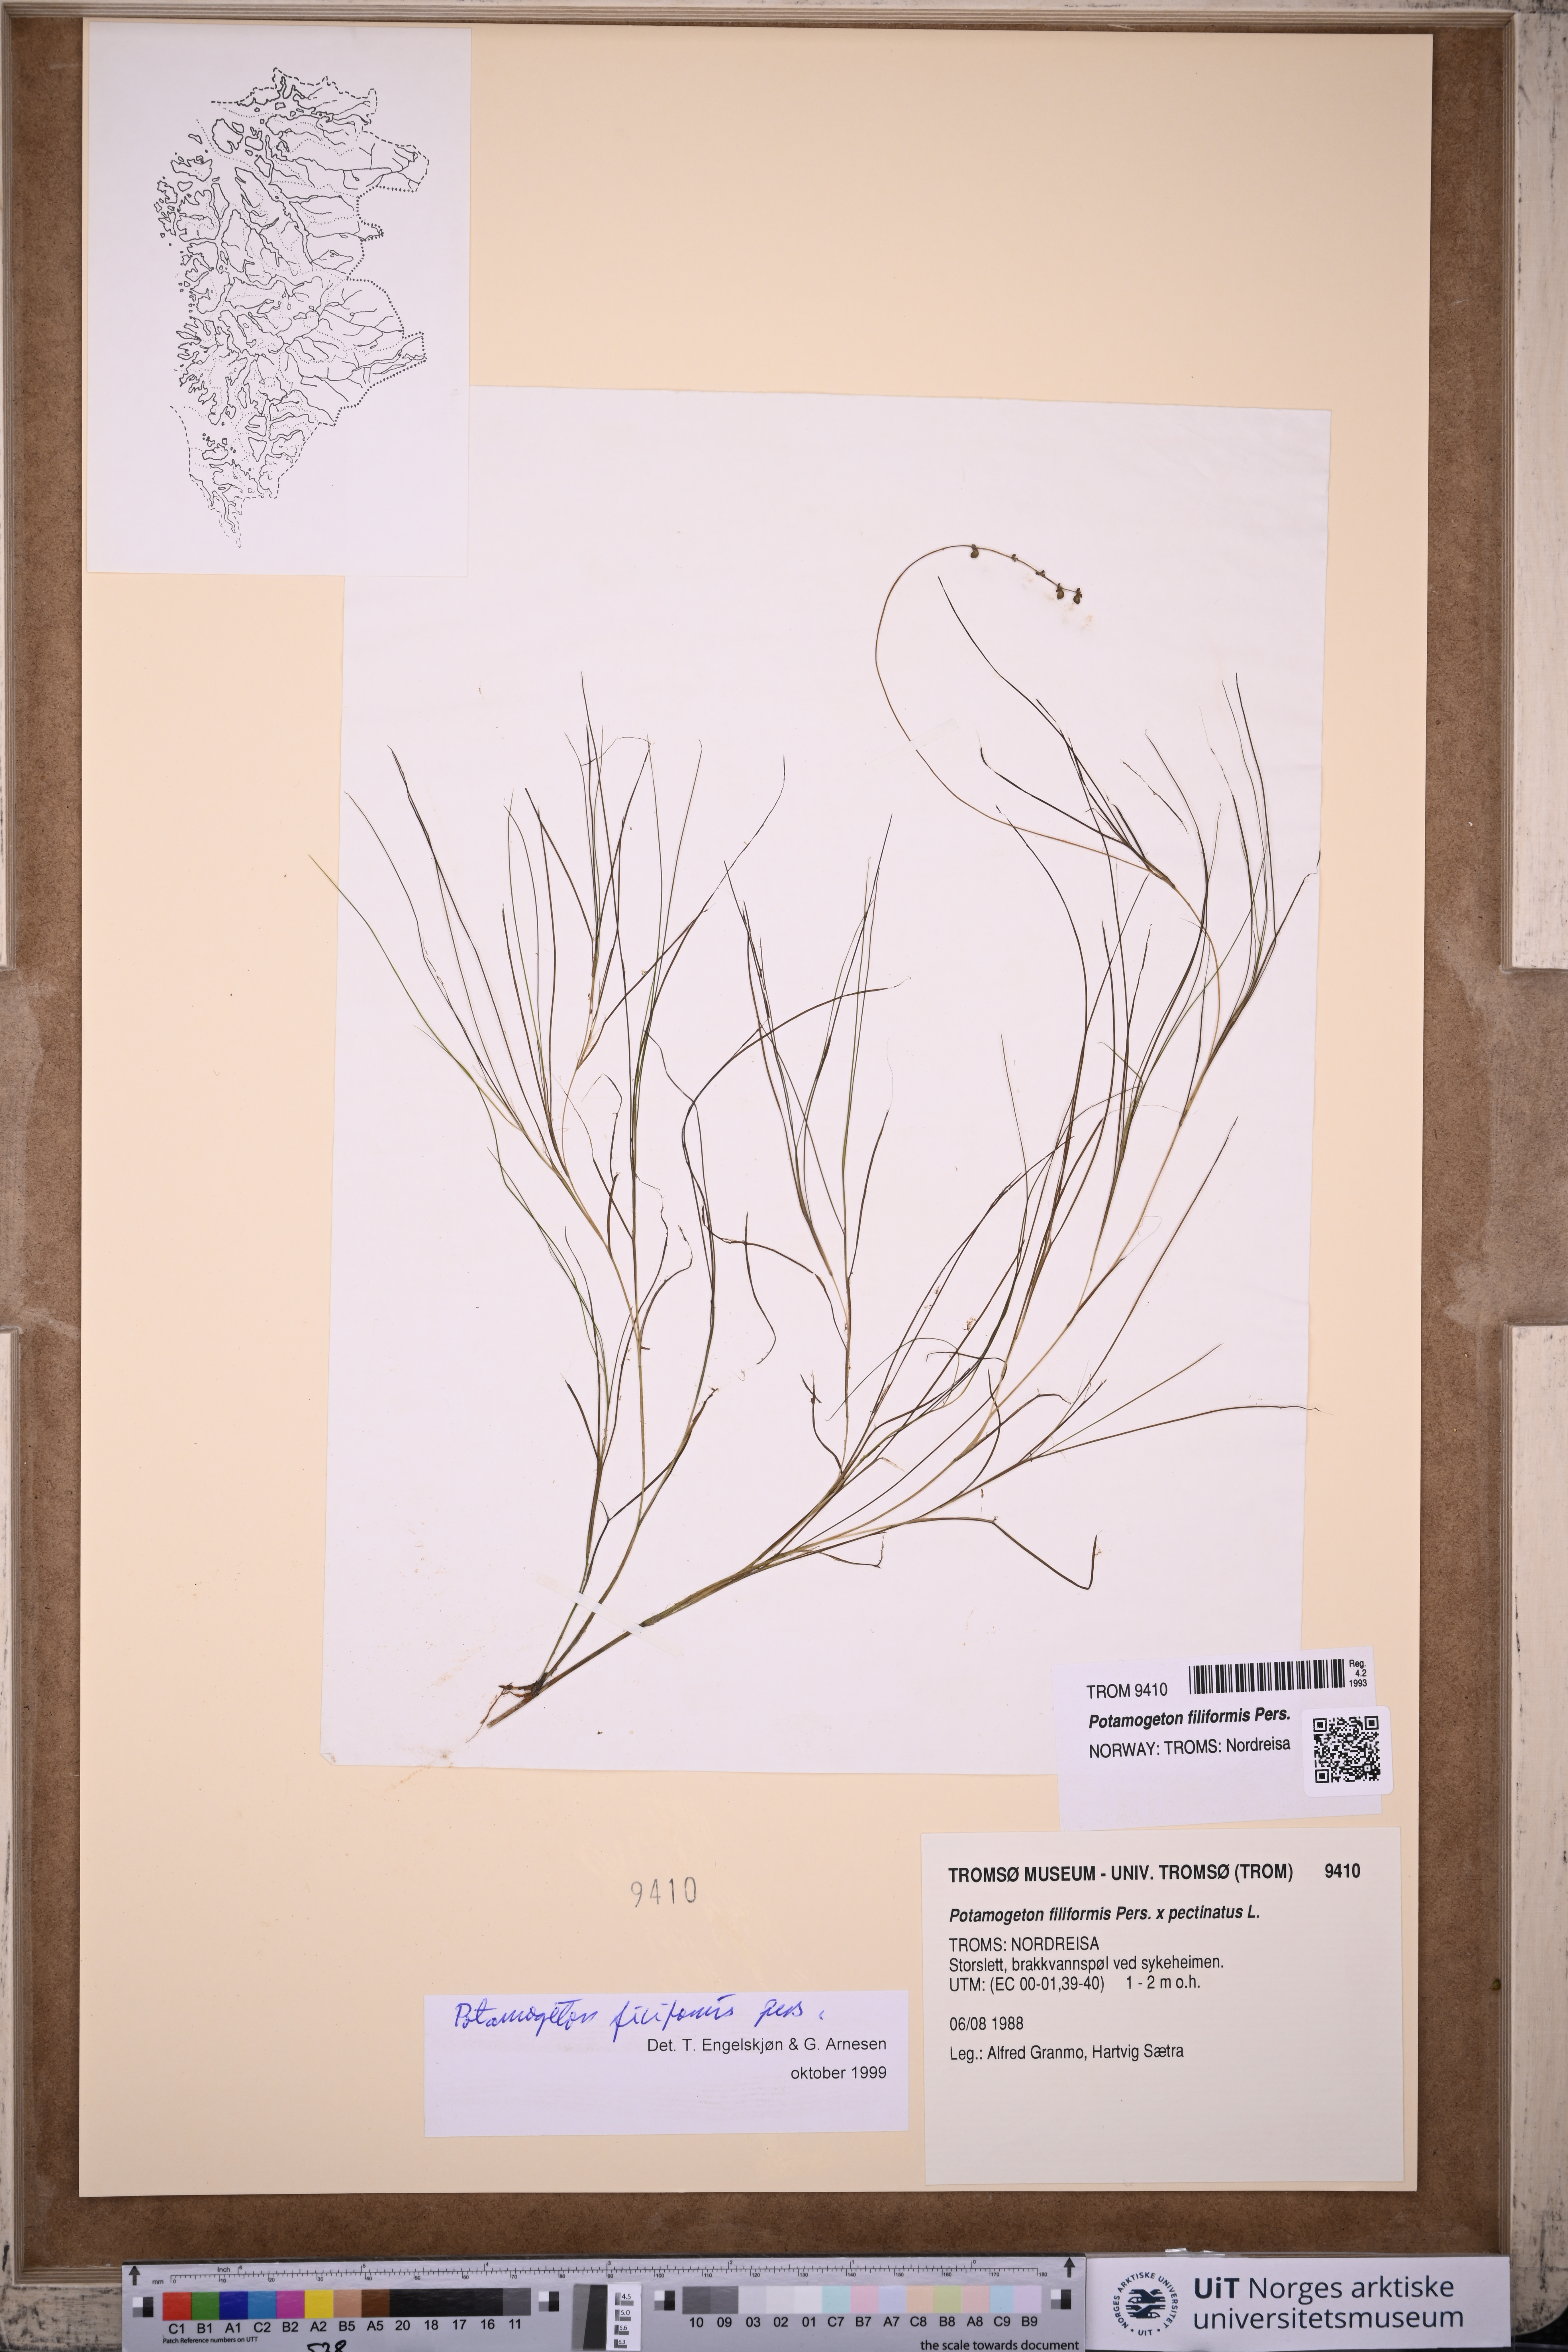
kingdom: Plantae
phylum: Tracheophyta
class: Liliopsida
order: Alismatales
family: Potamogetonaceae
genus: Stuckenia
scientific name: Stuckenia filiformis
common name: Alpine thread-leaved pondweed
